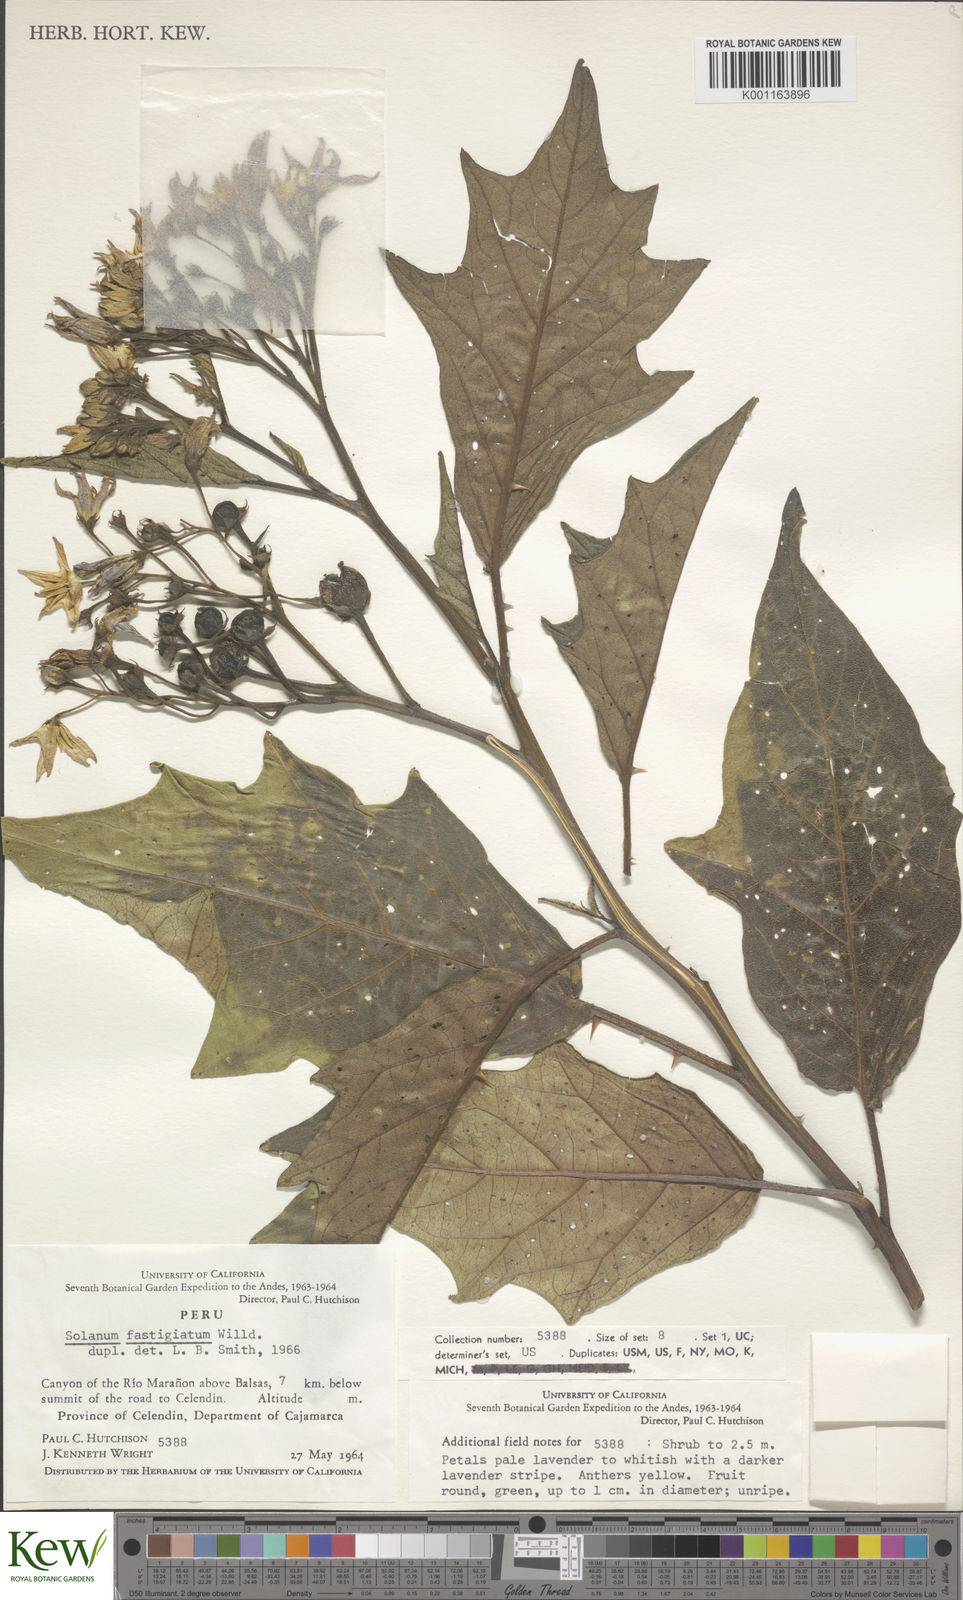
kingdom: Plantae
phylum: Tracheophyta
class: Magnoliopsida
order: Solanales
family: Solanaceae
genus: Solanum
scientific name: Solanum bonariense
